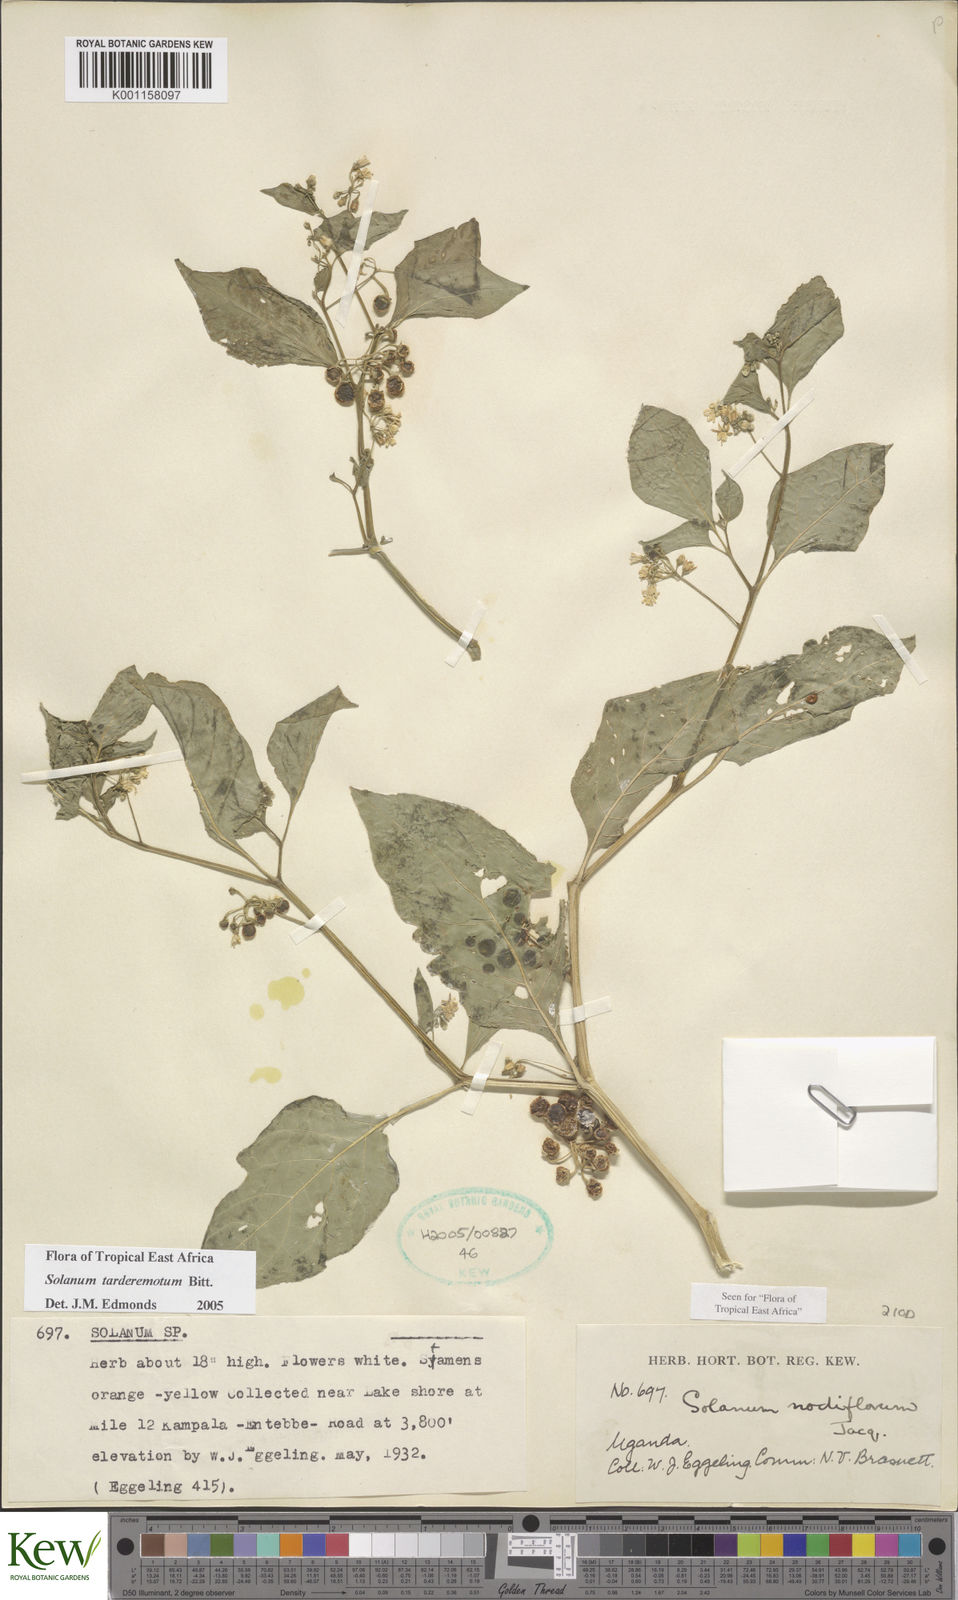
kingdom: Plantae
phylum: Tracheophyta
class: Magnoliopsida
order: Solanales
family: Solanaceae
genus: Solanum
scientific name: Solanum tarderemotum
